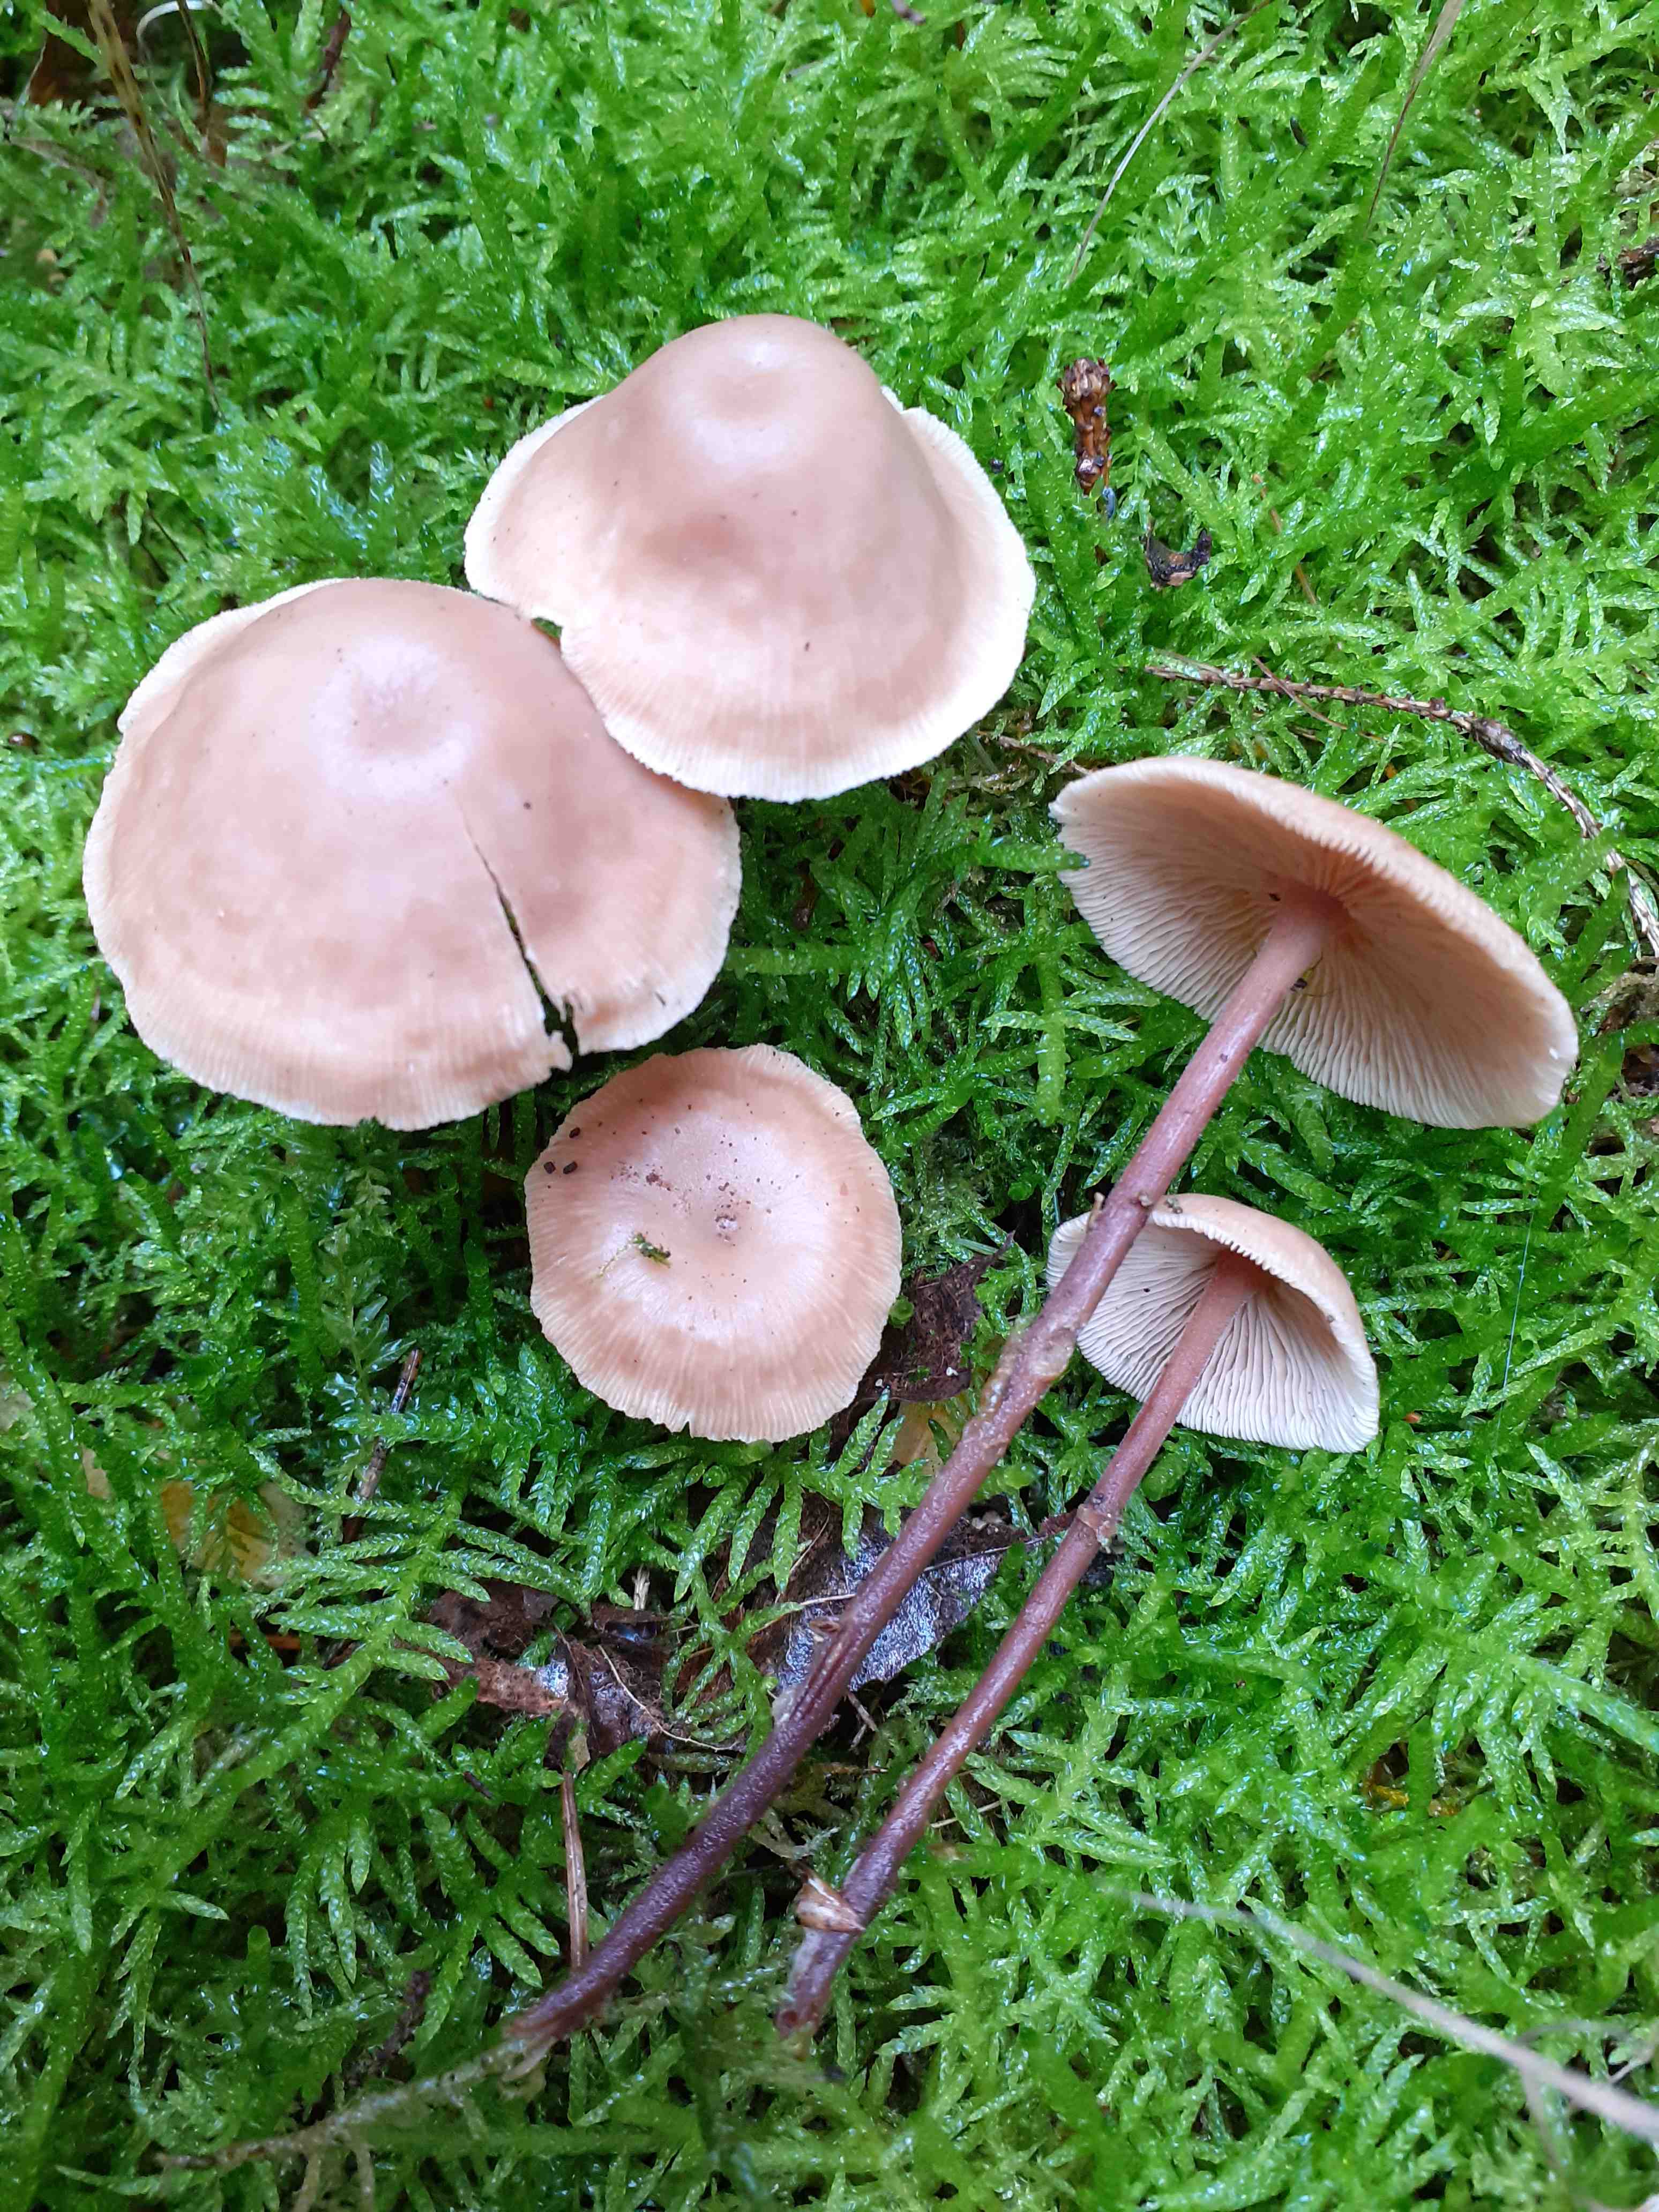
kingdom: Fungi
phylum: Basidiomycota
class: Agaricomycetes
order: Agaricales
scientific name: Agaricales
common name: champignonordenen
